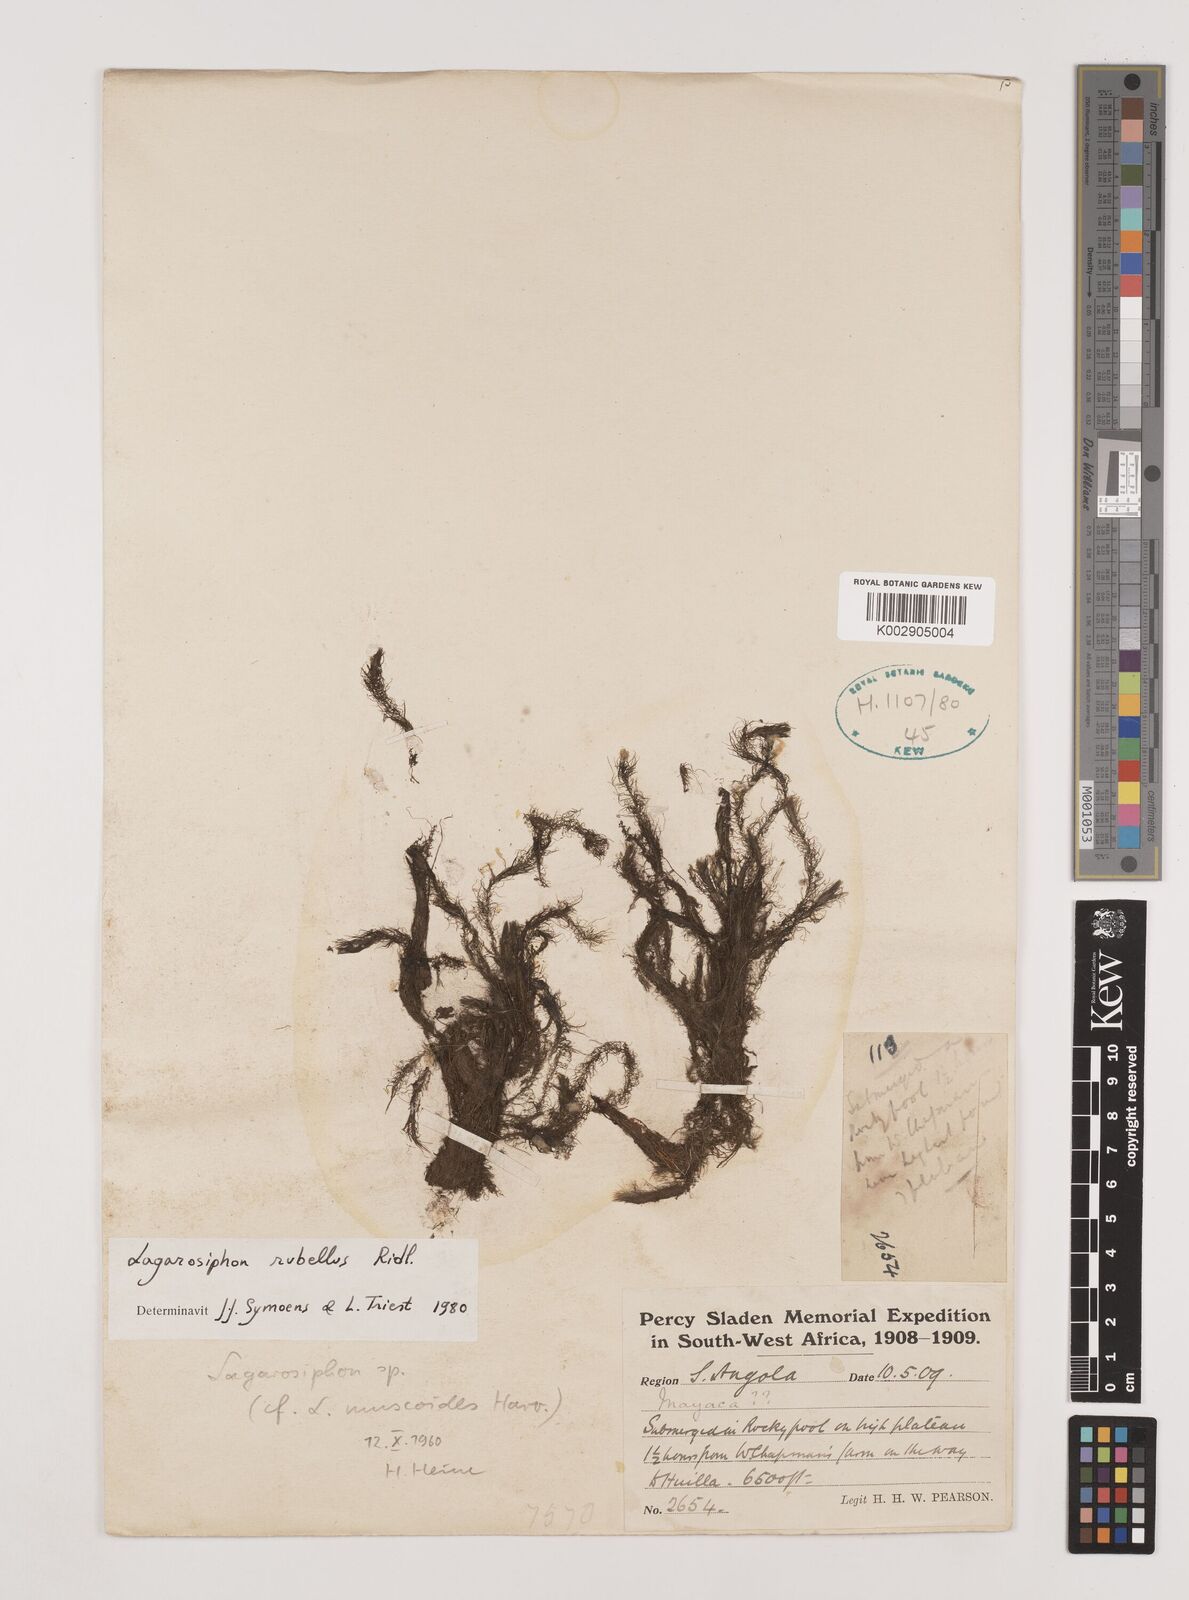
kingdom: Plantae
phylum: Tracheophyta
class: Liliopsida
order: Alismatales
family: Hydrocharitaceae
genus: Lagarosiphon
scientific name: Lagarosiphon rubellus
